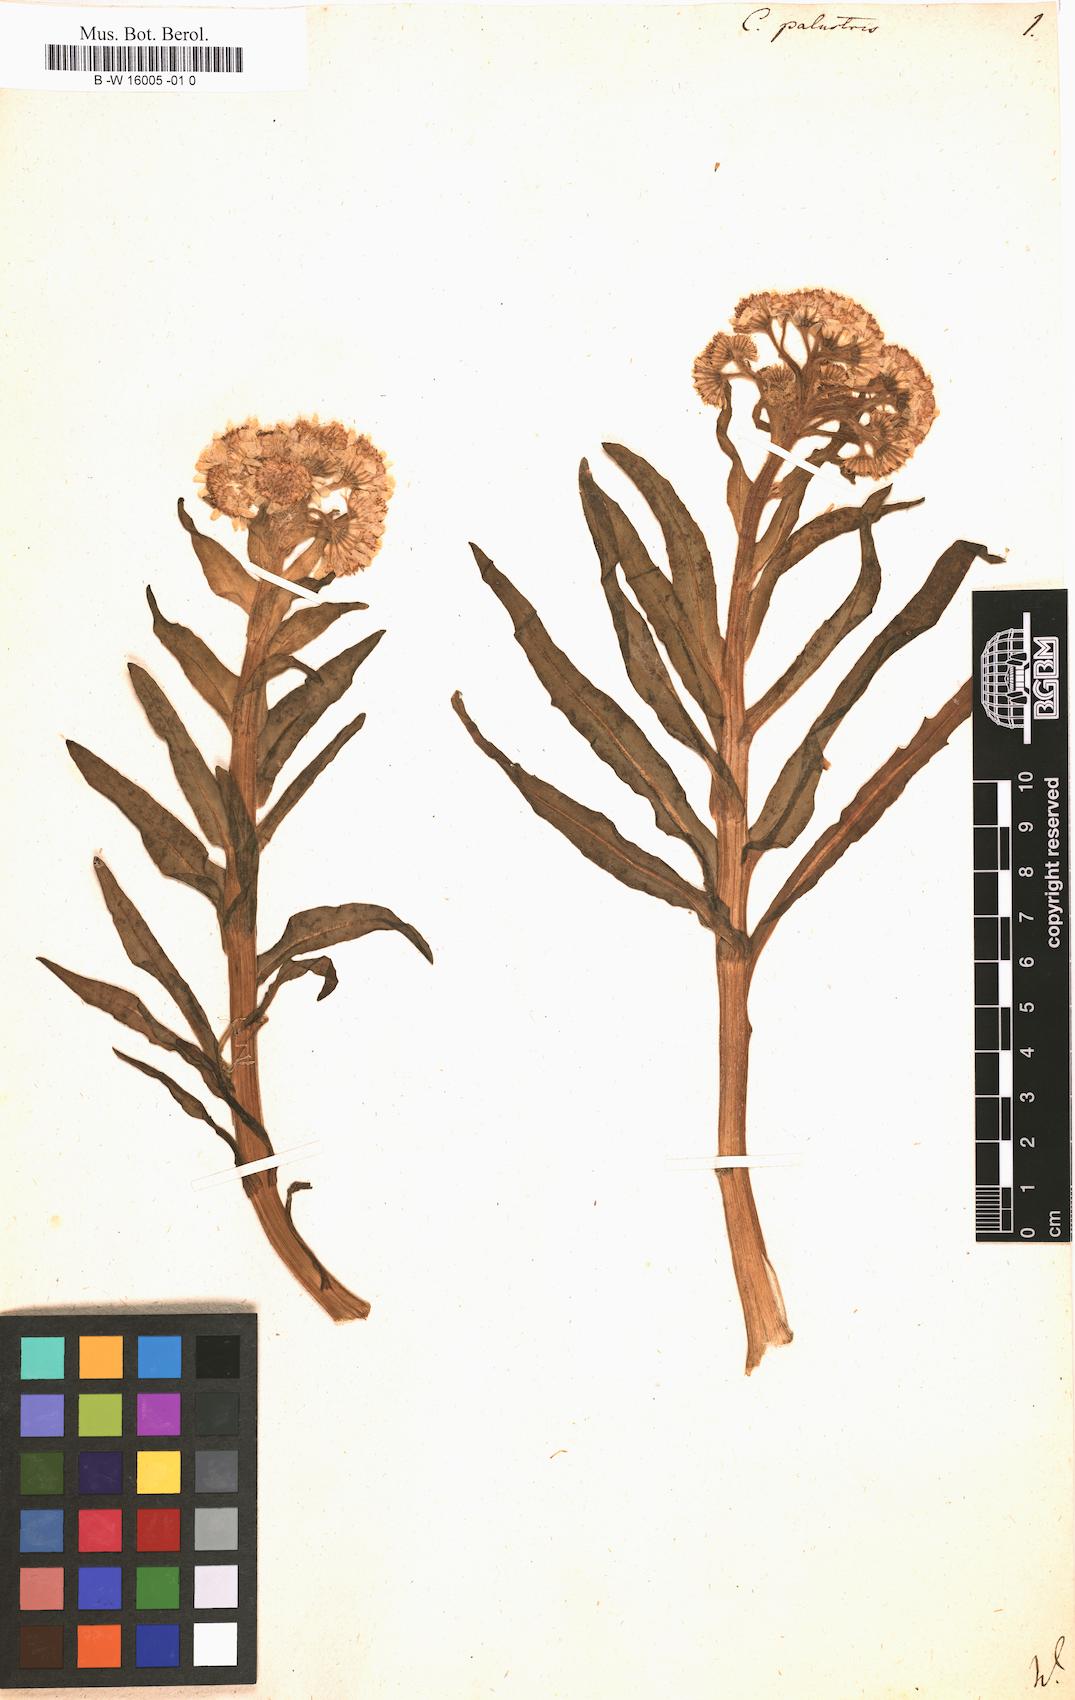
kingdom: Plantae
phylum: Tracheophyta
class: Magnoliopsida
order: Asterales
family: Asteraceae
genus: Tephroseris
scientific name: Tephroseris palustris
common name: Marsh fleawort
